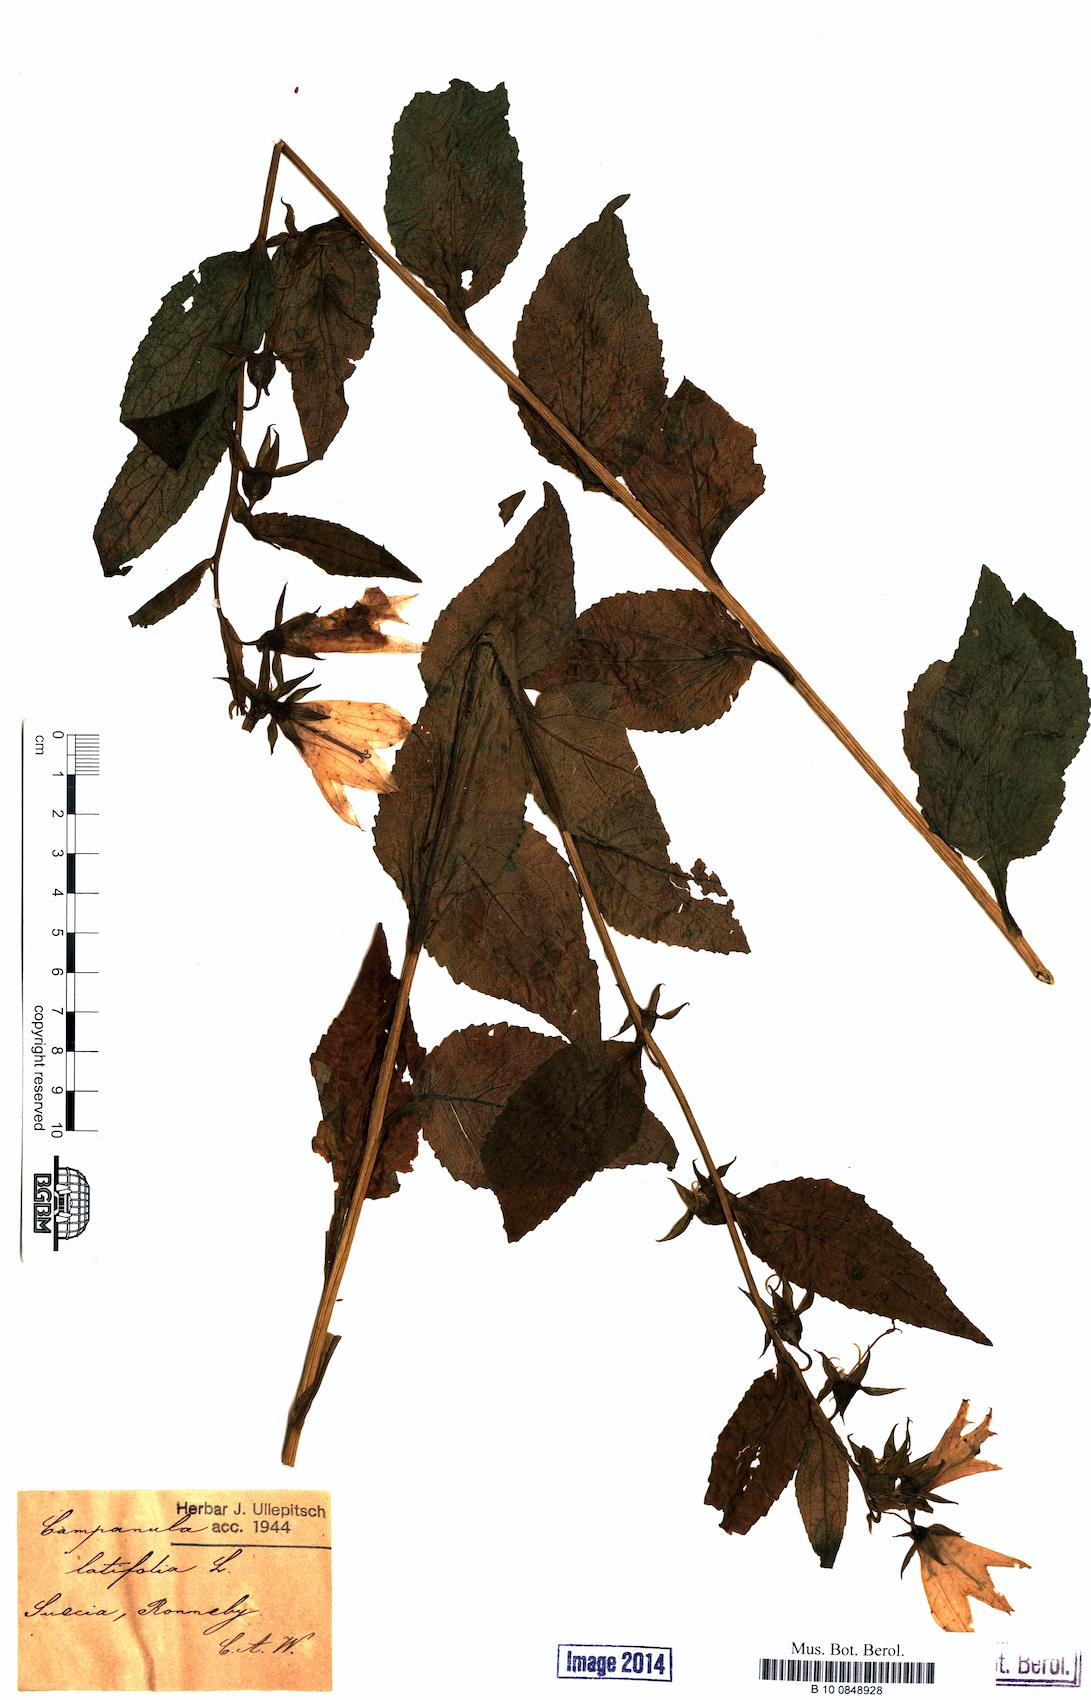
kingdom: Plantae
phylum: Tracheophyta
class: Magnoliopsida
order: Asterales
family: Campanulaceae
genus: Campanula
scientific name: Campanula latifolia
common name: Giant bellflower
